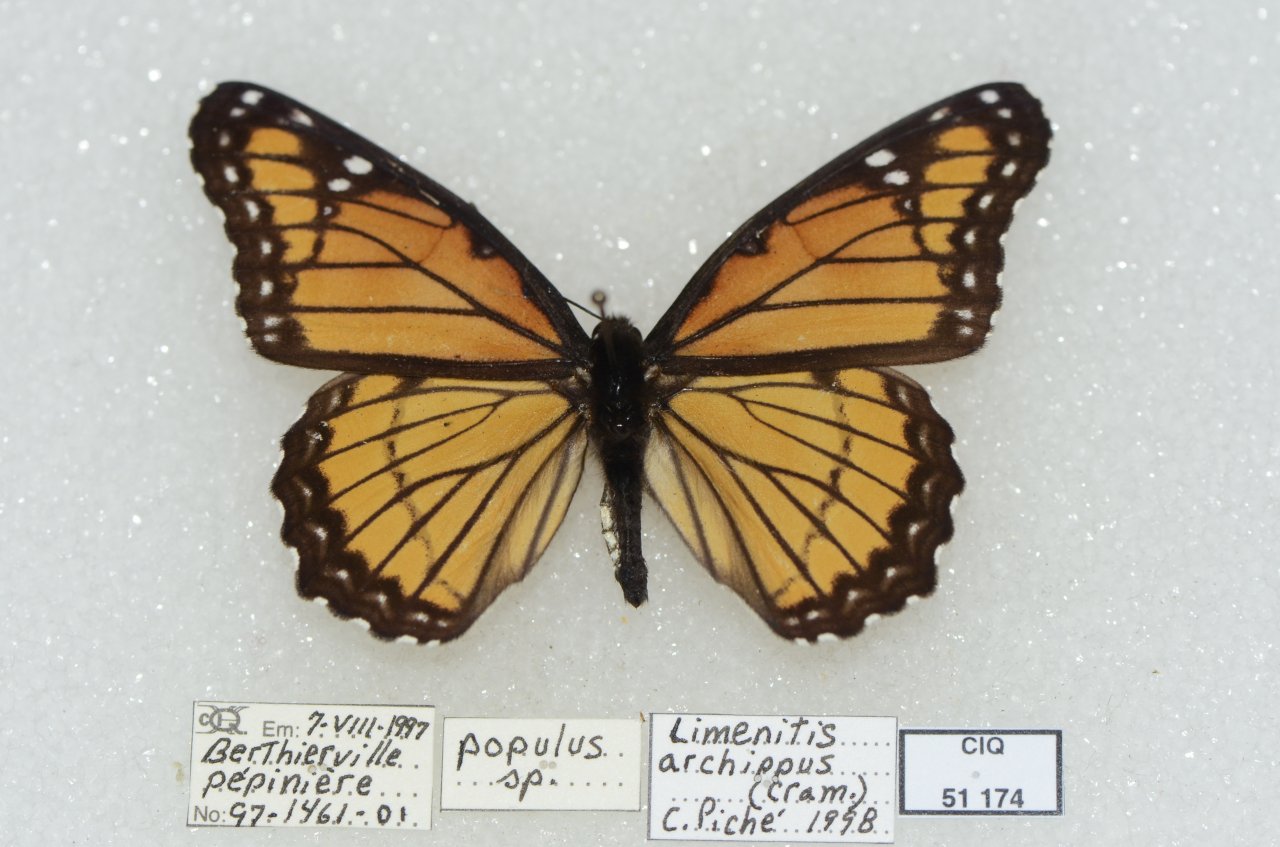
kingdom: Animalia
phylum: Arthropoda
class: Insecta
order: Lepidoptera
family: Nymphalidae
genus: Limenitis
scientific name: Limenitis archippus
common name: Viceroy
